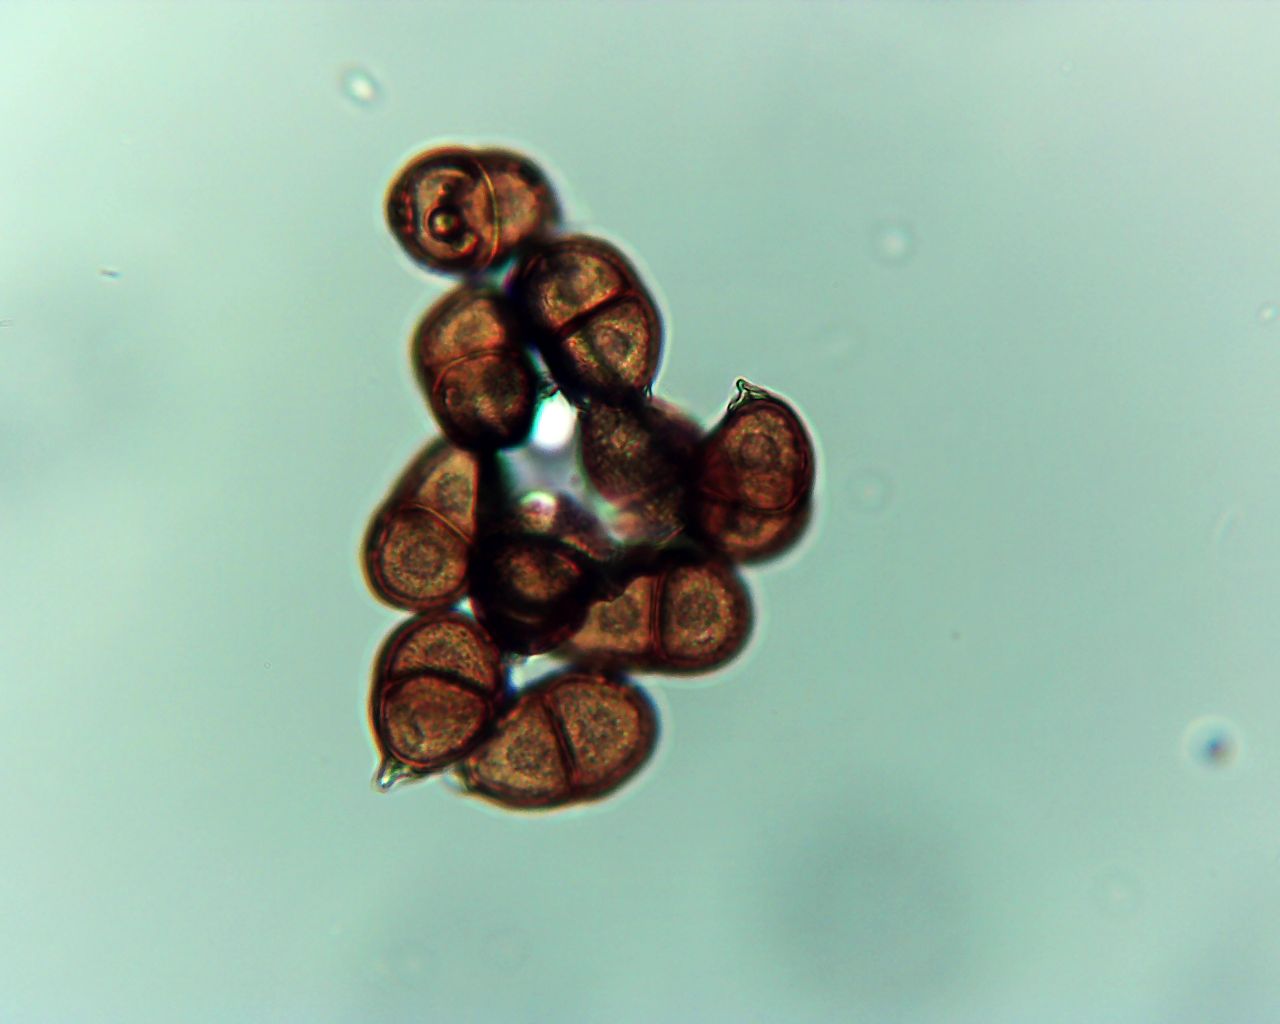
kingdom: Fungi
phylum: Basidiomycota
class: Pucciniomycetes
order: Pucciniales
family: Pucciniaceae
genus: Puccinia
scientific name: Puccinia hieracii
